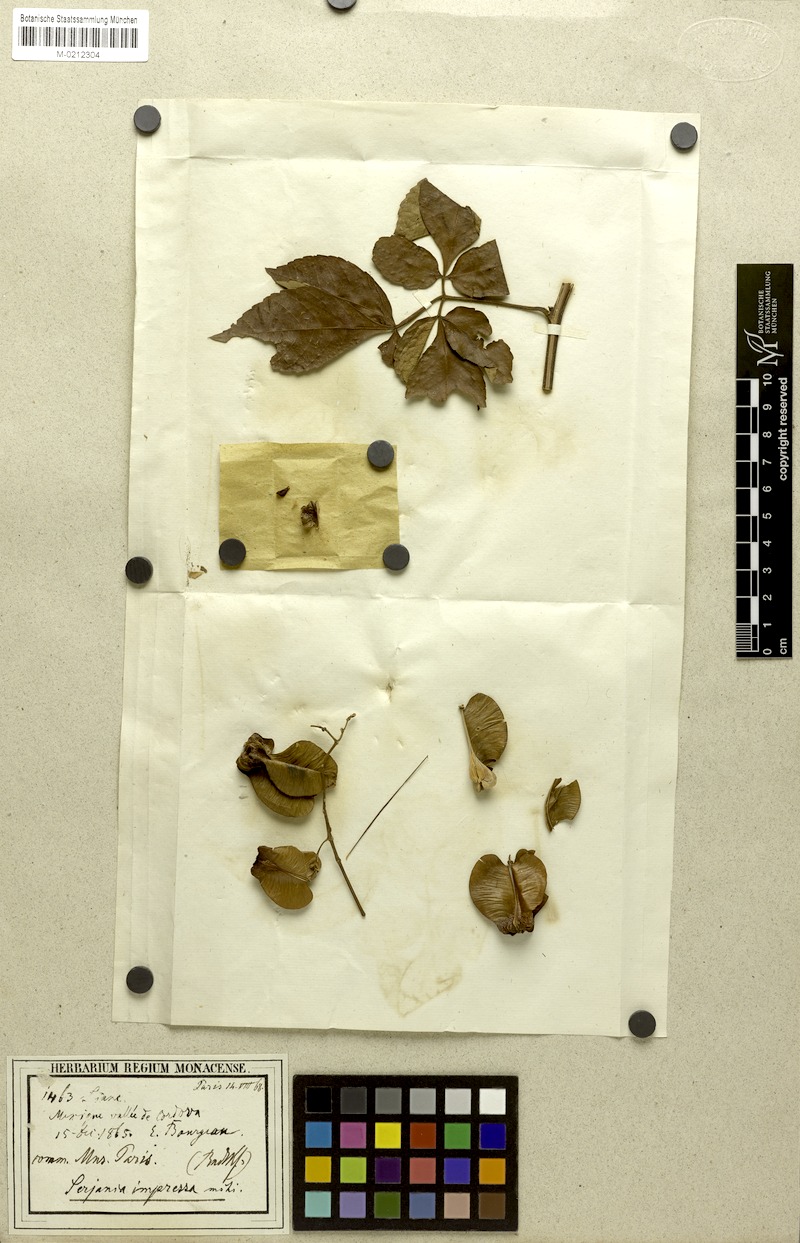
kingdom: Plantae
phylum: Tracheophyta
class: Magnoliopsida
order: Sapindales
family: Sapindaceae
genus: Serjania
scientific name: Serjania impressa
